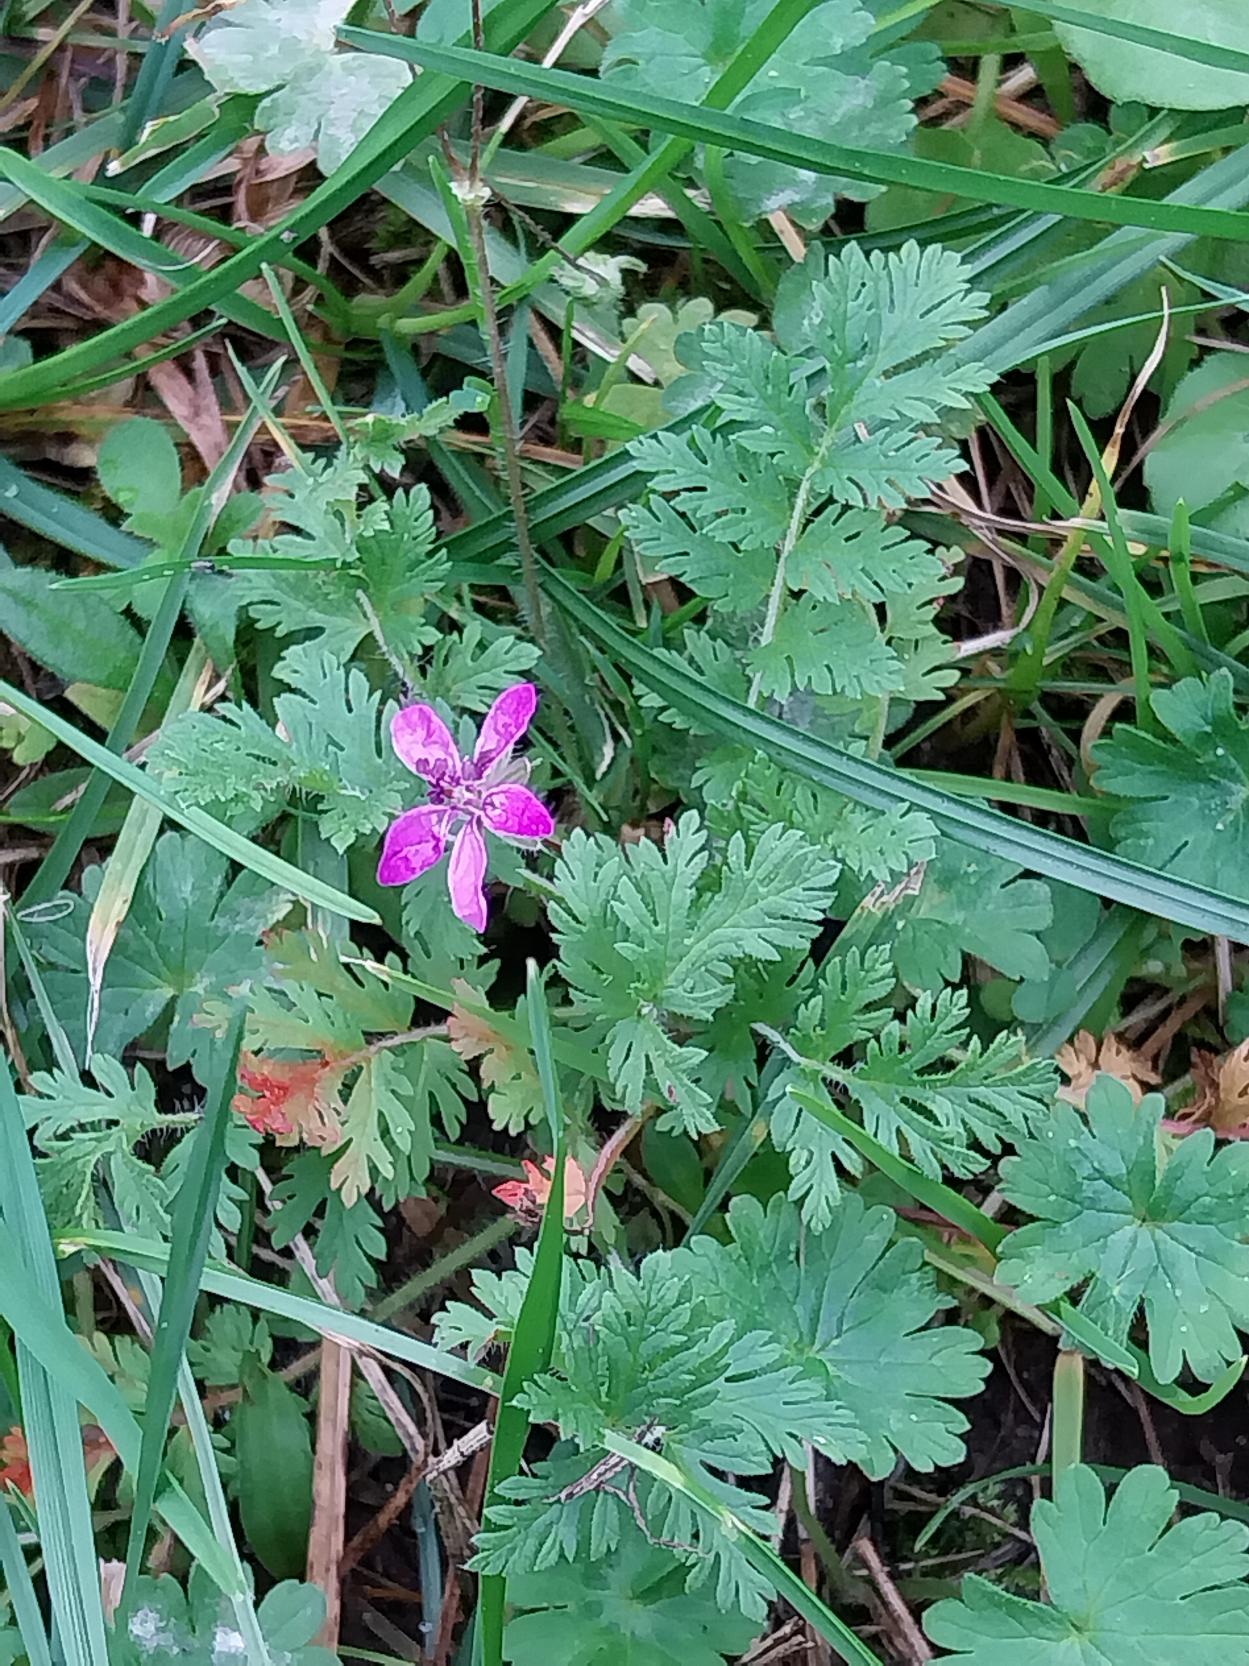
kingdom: Plantae
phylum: Tracheophyta
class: Magnoliopsida
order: Geraniales
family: Geraniaceae
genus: Erodium
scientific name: Erodium cicutarium
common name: Hejrenæb
